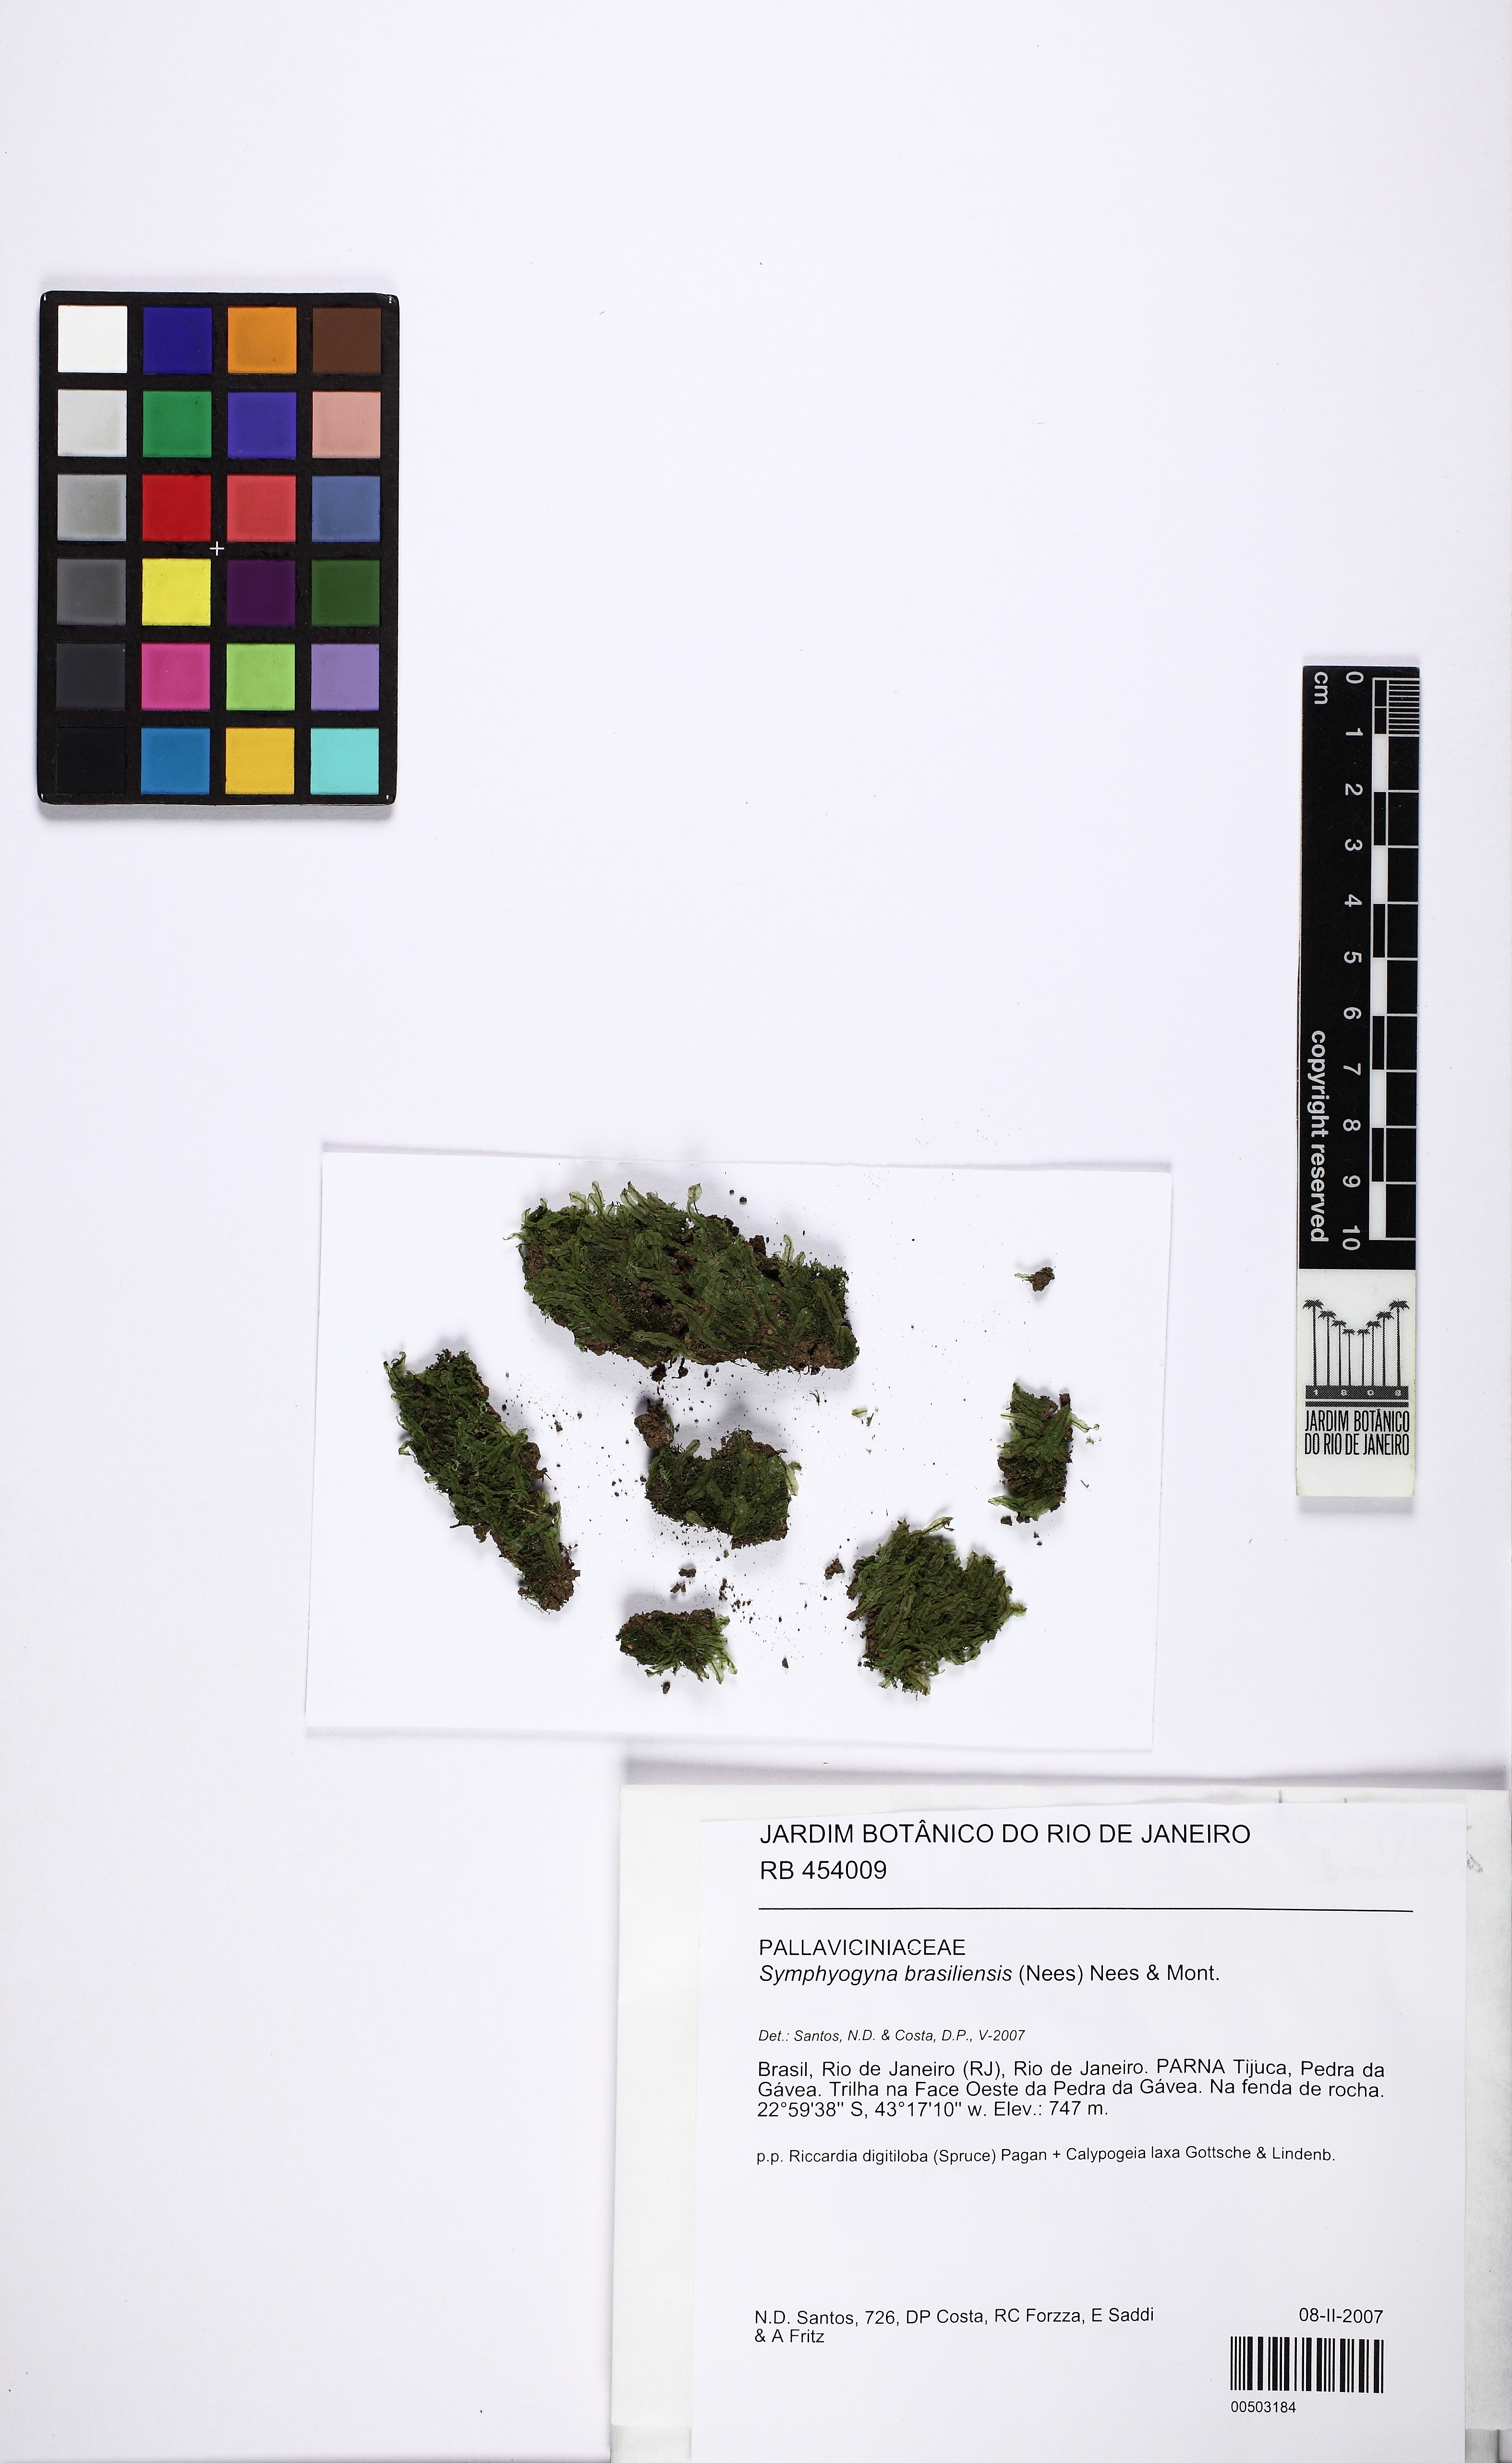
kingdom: Plantae
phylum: Marchantiophyta
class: Jungermanniopsida
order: Pallaviciniales
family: Pallaviciniaceae
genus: Symphyogyna
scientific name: Symphyogyna brasiliensis
